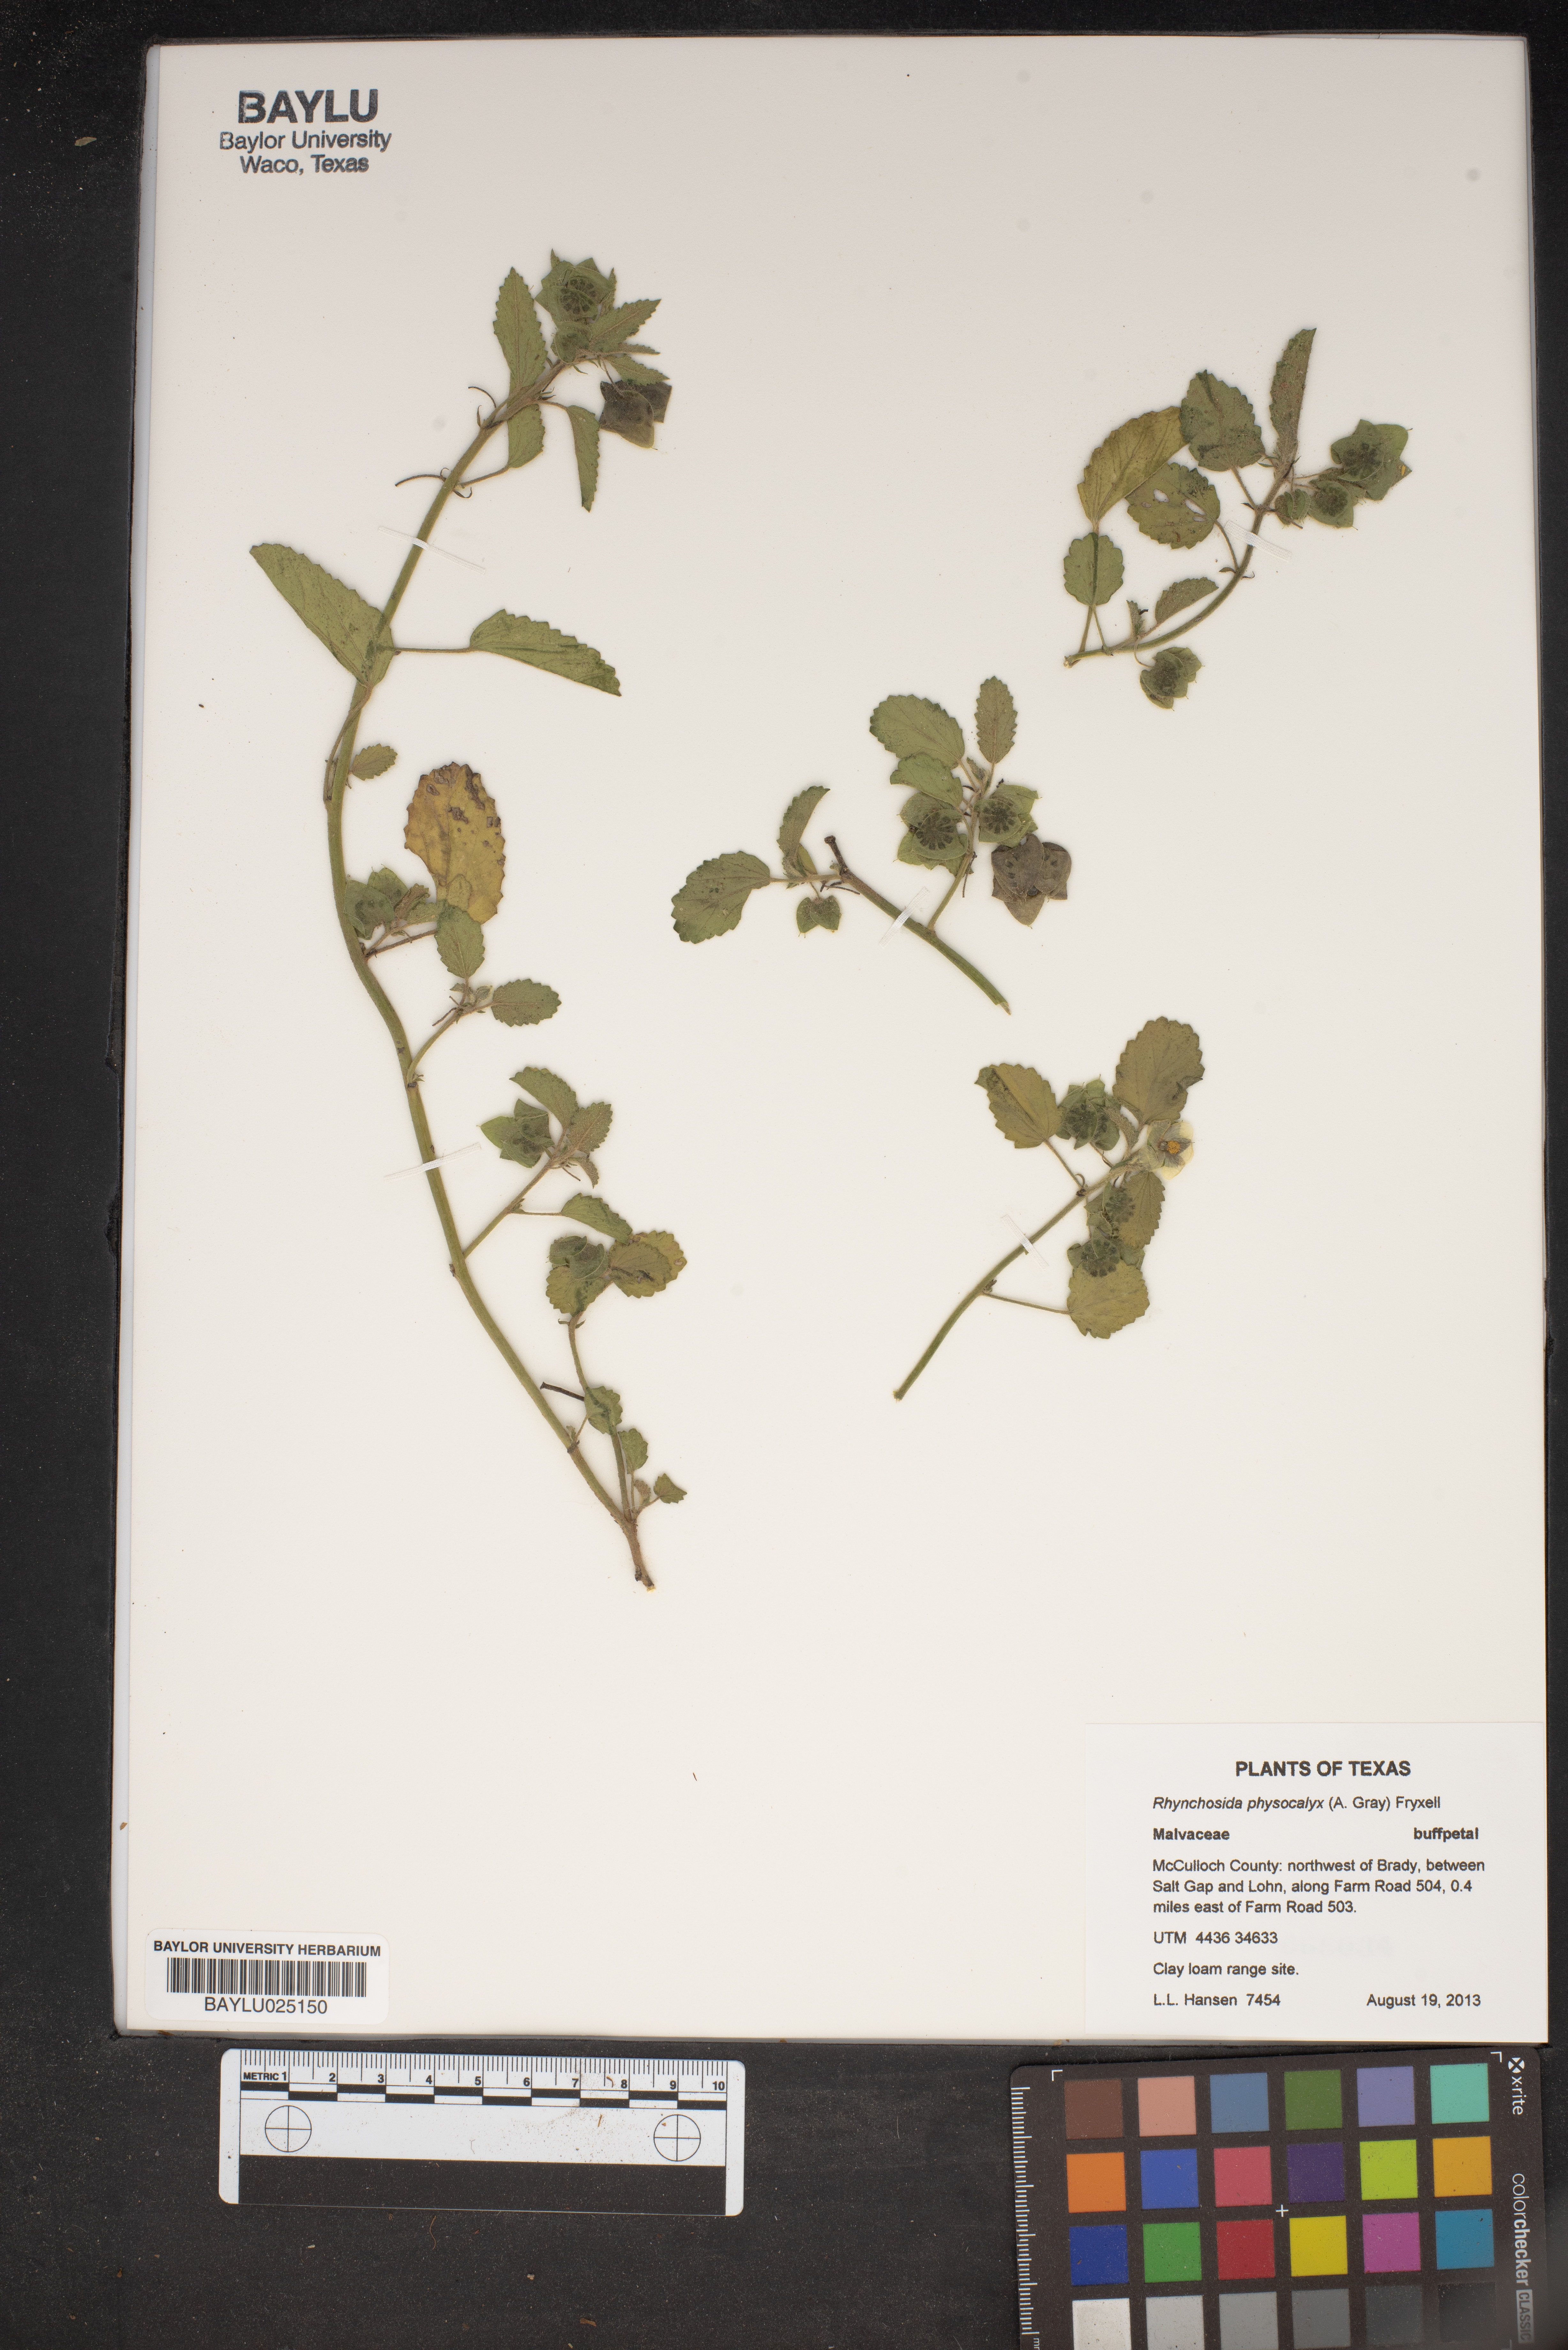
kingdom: Plantae
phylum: Tracheophyta
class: Magnoliopsida
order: Malvales
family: Malvaceae
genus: Rhynchosida
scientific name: Rhynchosida physocalyx
